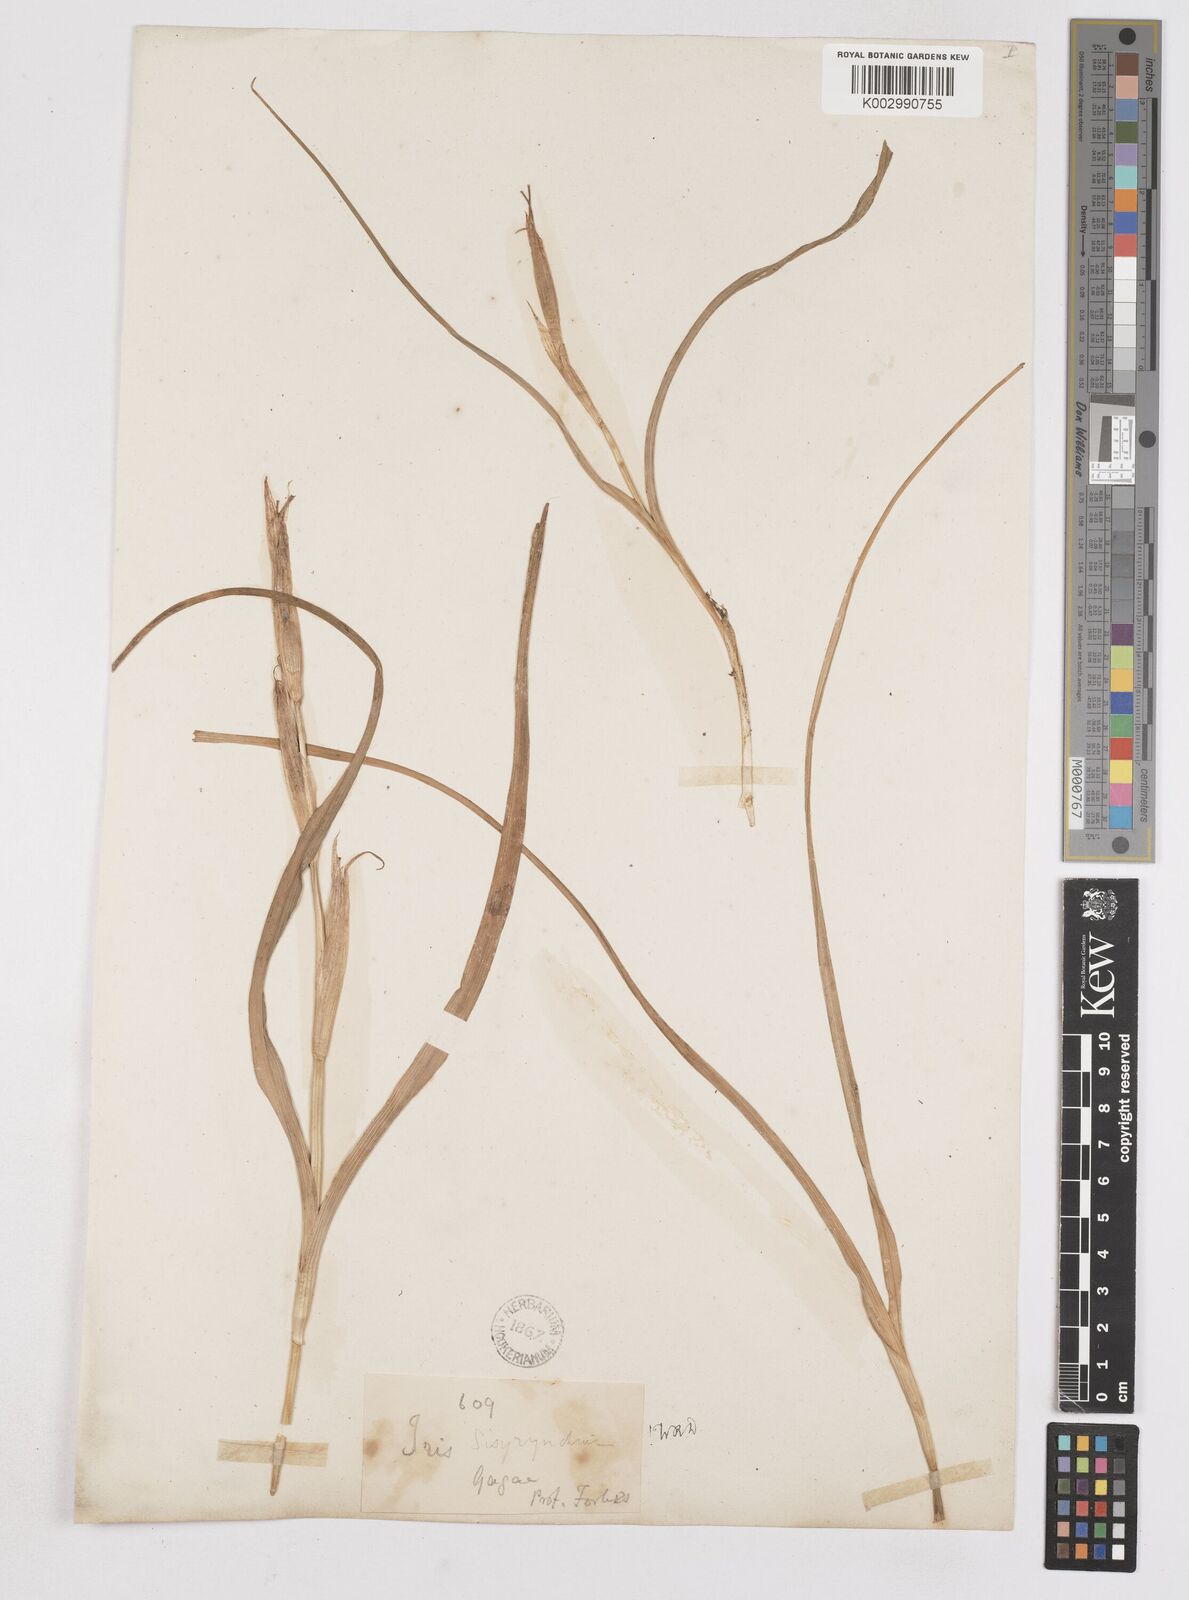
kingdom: Plantae
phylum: Tracheophyta
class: Liliopsida
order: Asparagales
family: Iridaceae
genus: Moraea
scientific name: Moraea sisyrinchium
